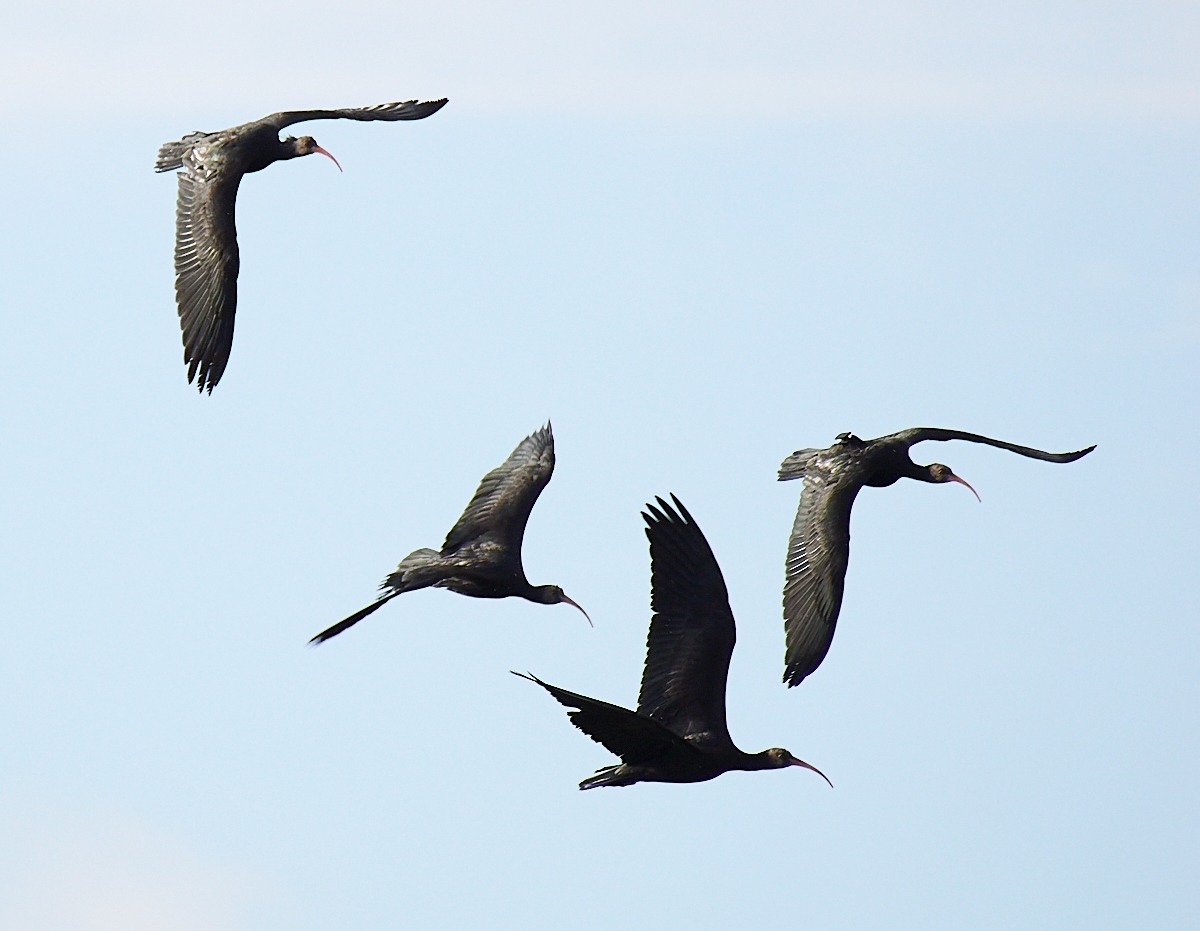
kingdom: Animalia
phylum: Chordata
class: Aves
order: Pelecaniformes
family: Threskiornithidae
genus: Geronticus
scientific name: Geronticus eremita
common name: Eremitibis
